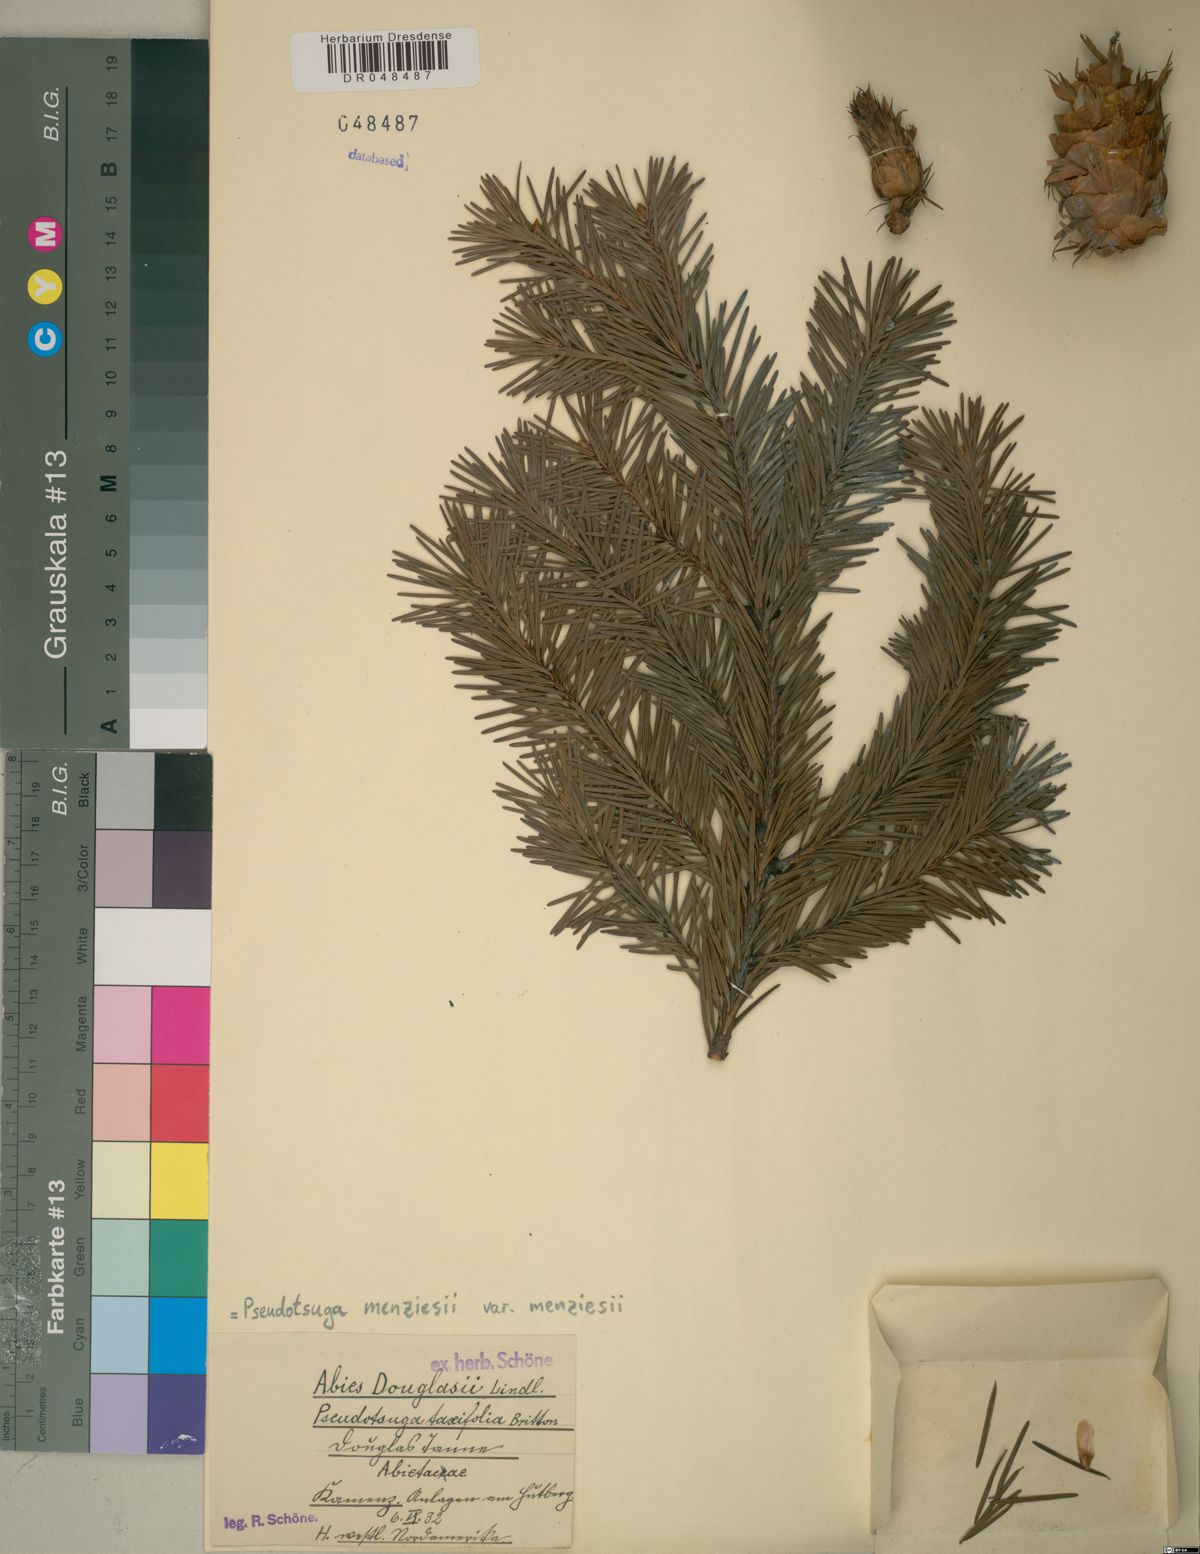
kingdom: Plantae
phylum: Tracheophyta
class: Pinopsida
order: Pinales
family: Pinaceae
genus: Pseudotsuga
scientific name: Pseudotsuga menziesii
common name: Douglas fir
